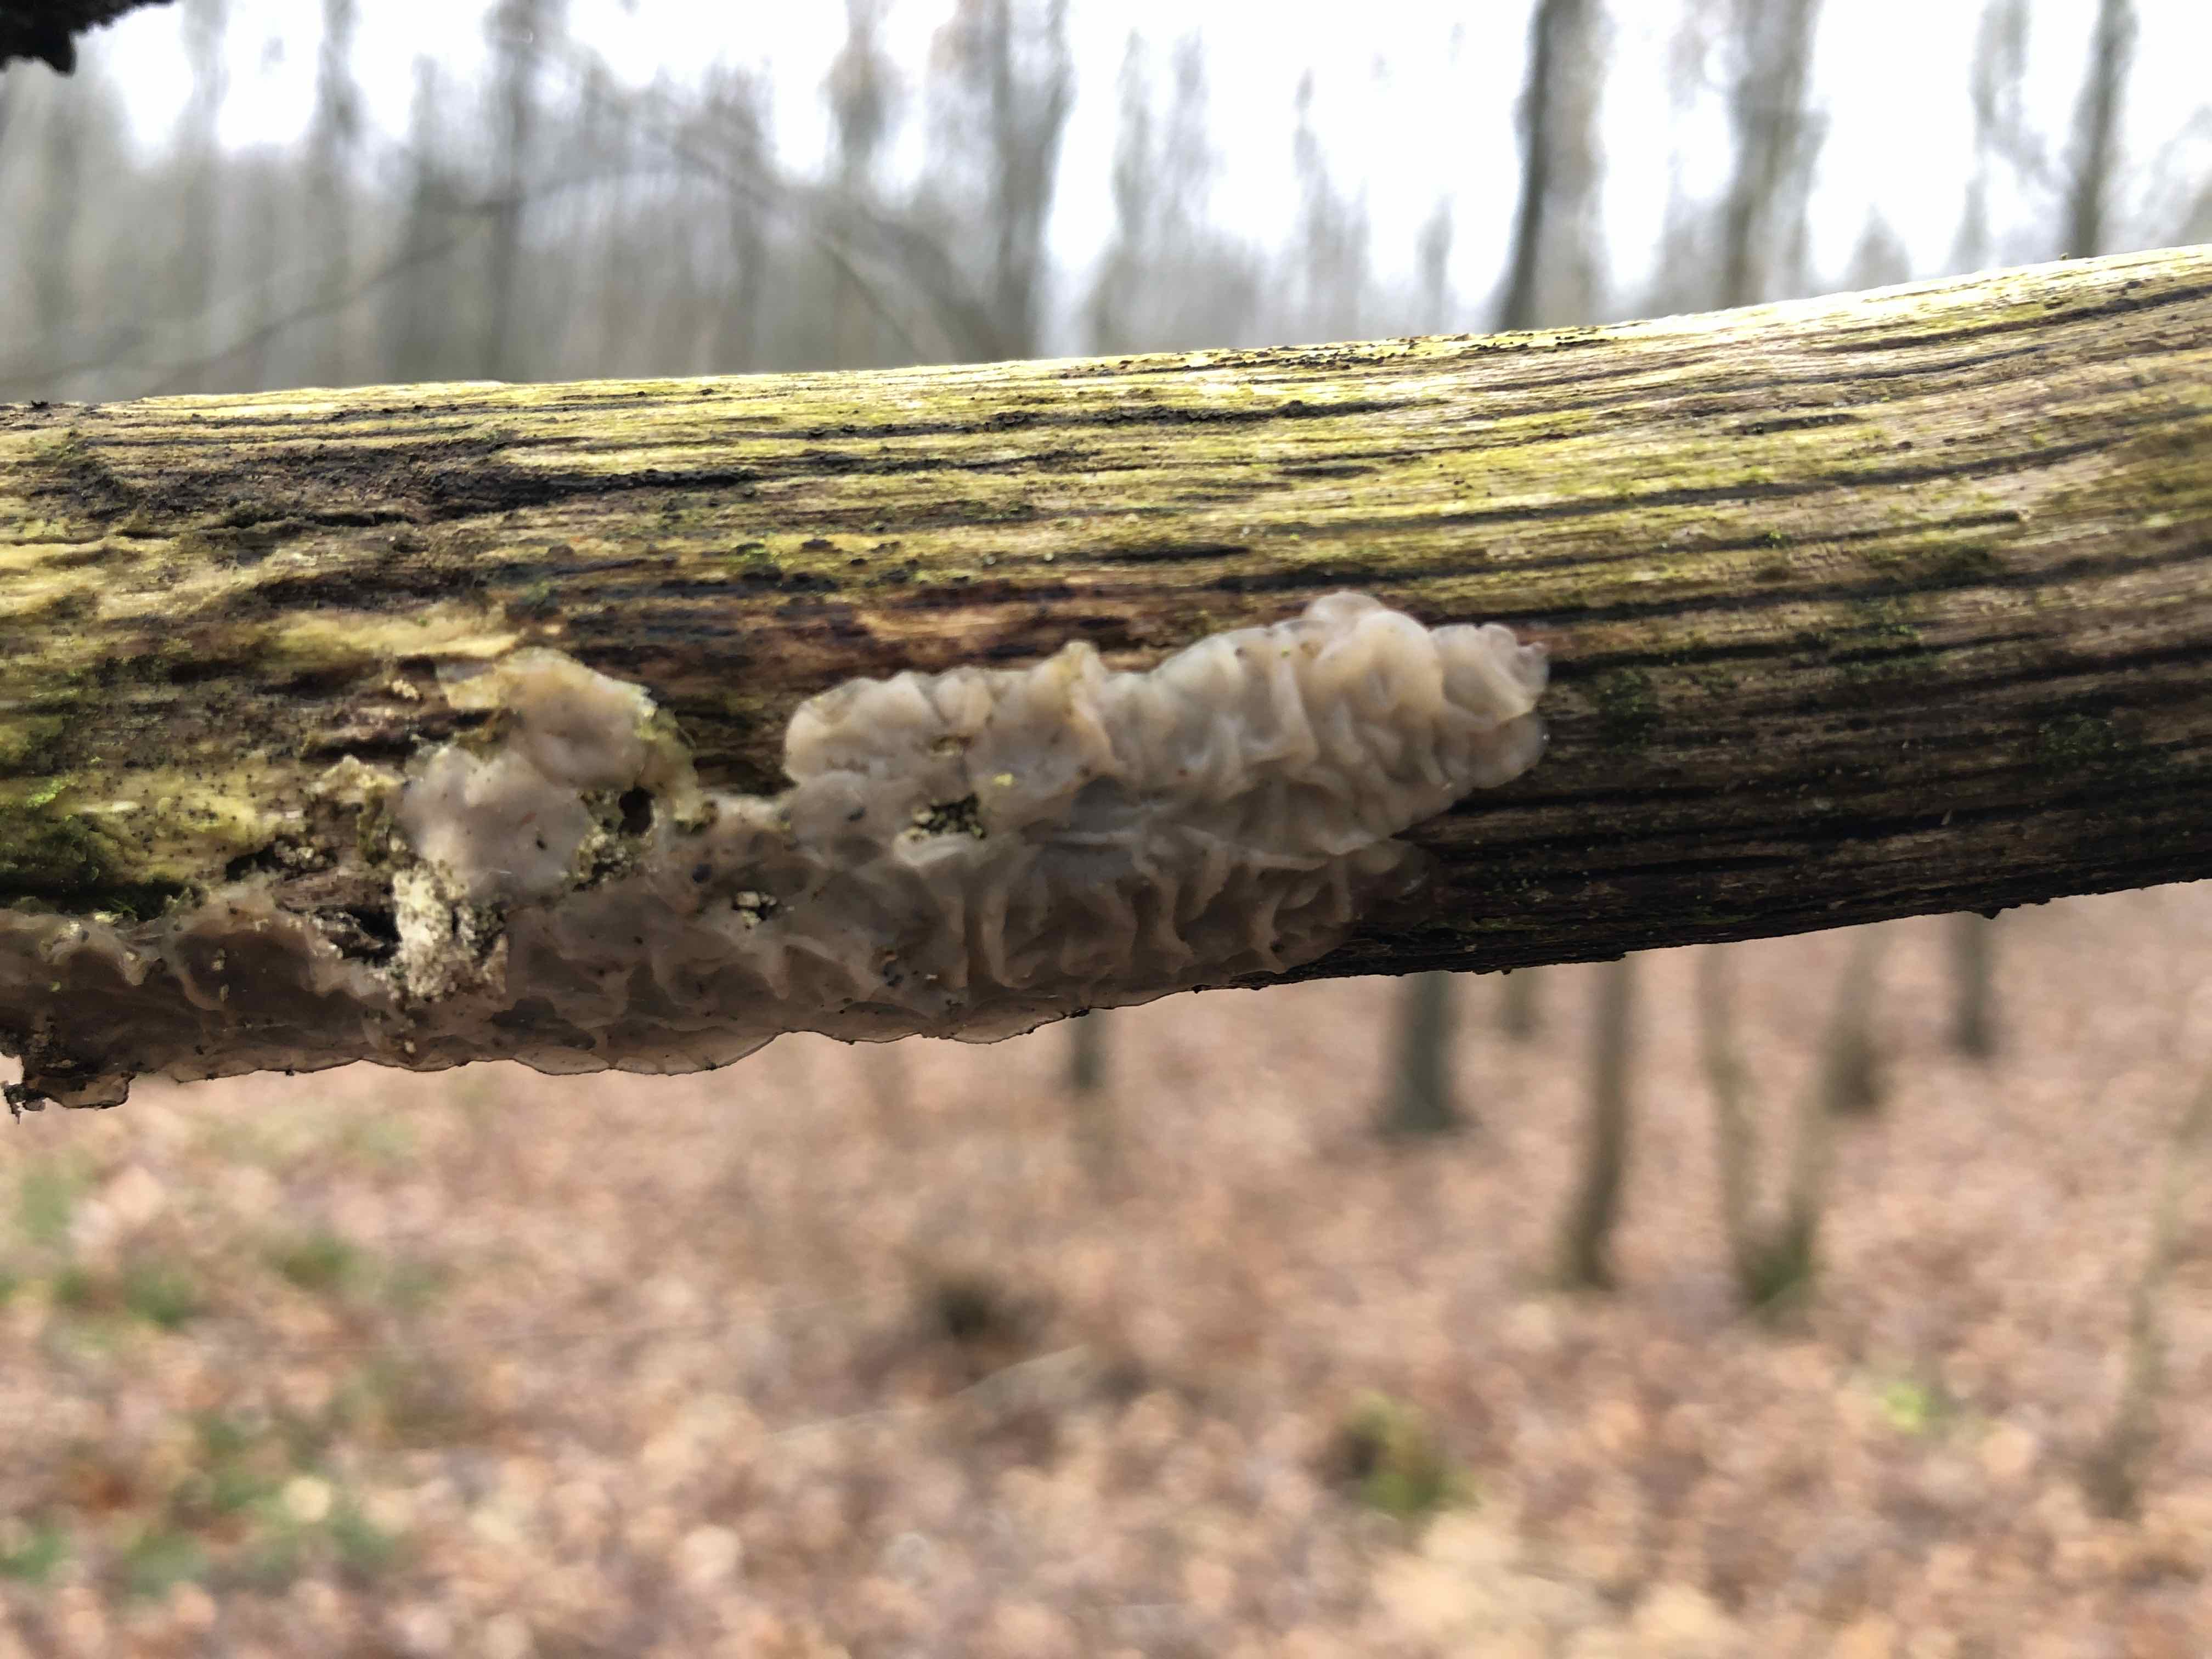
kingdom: Fungi
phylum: Basidiomycota
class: Agaricomycetes
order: Auriculariales
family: Auriculariaceae
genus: Exidia
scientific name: Exidia thuretiana
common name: hvidlig bævretop
